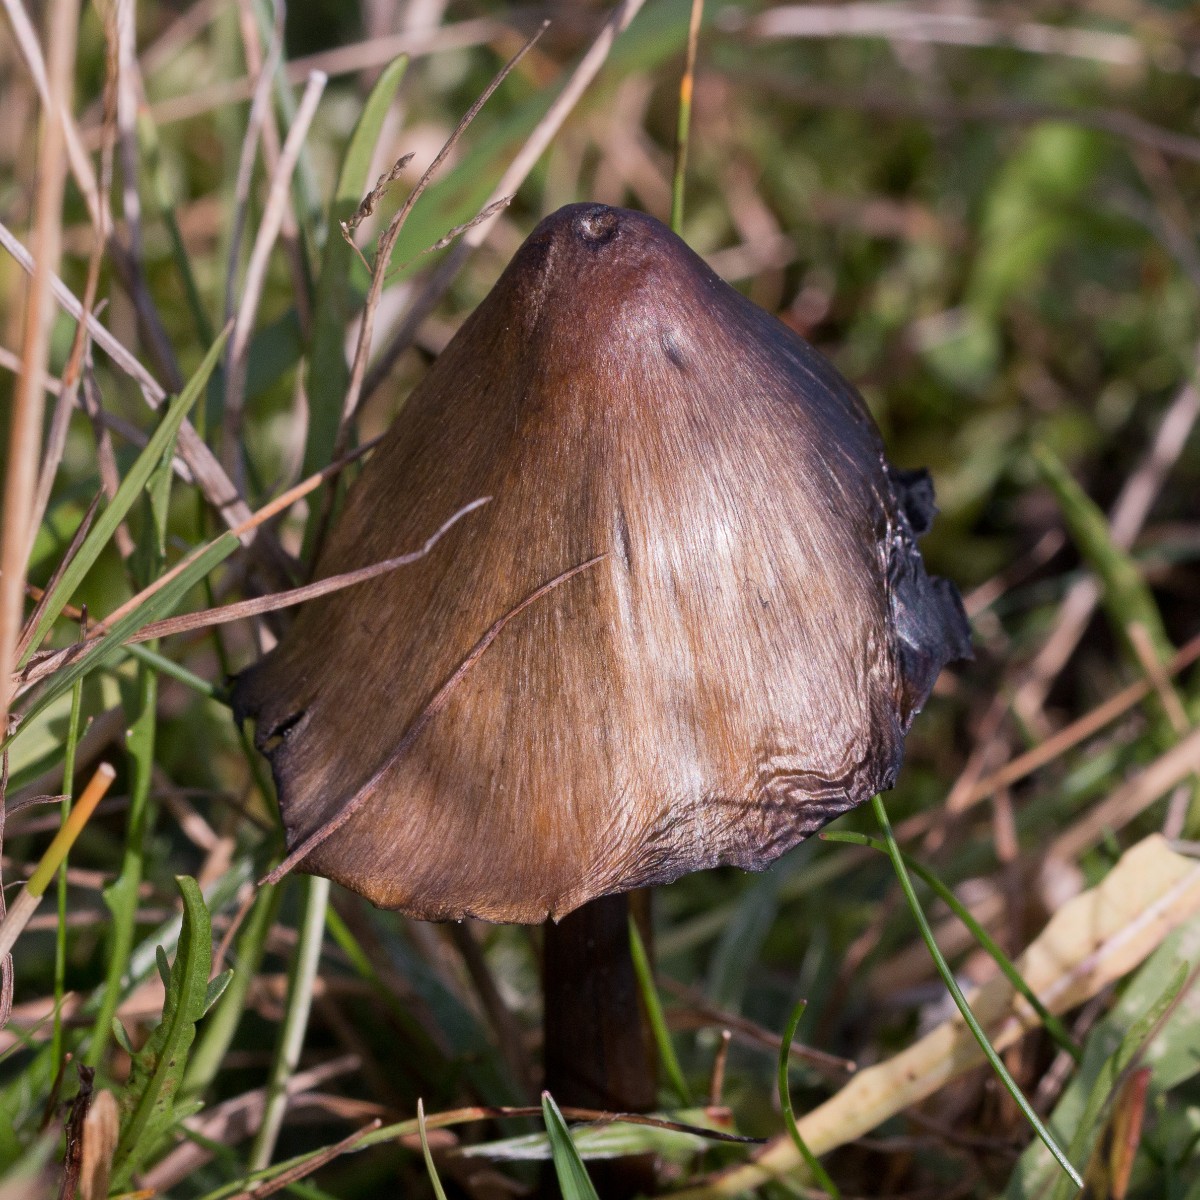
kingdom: Fungi
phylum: Basidiomycota
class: Agaricomycetes
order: Agaricales
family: Hygrophoraceae
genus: Hygrocybe
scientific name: Hygrocybe conica
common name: kegle-vokshat
